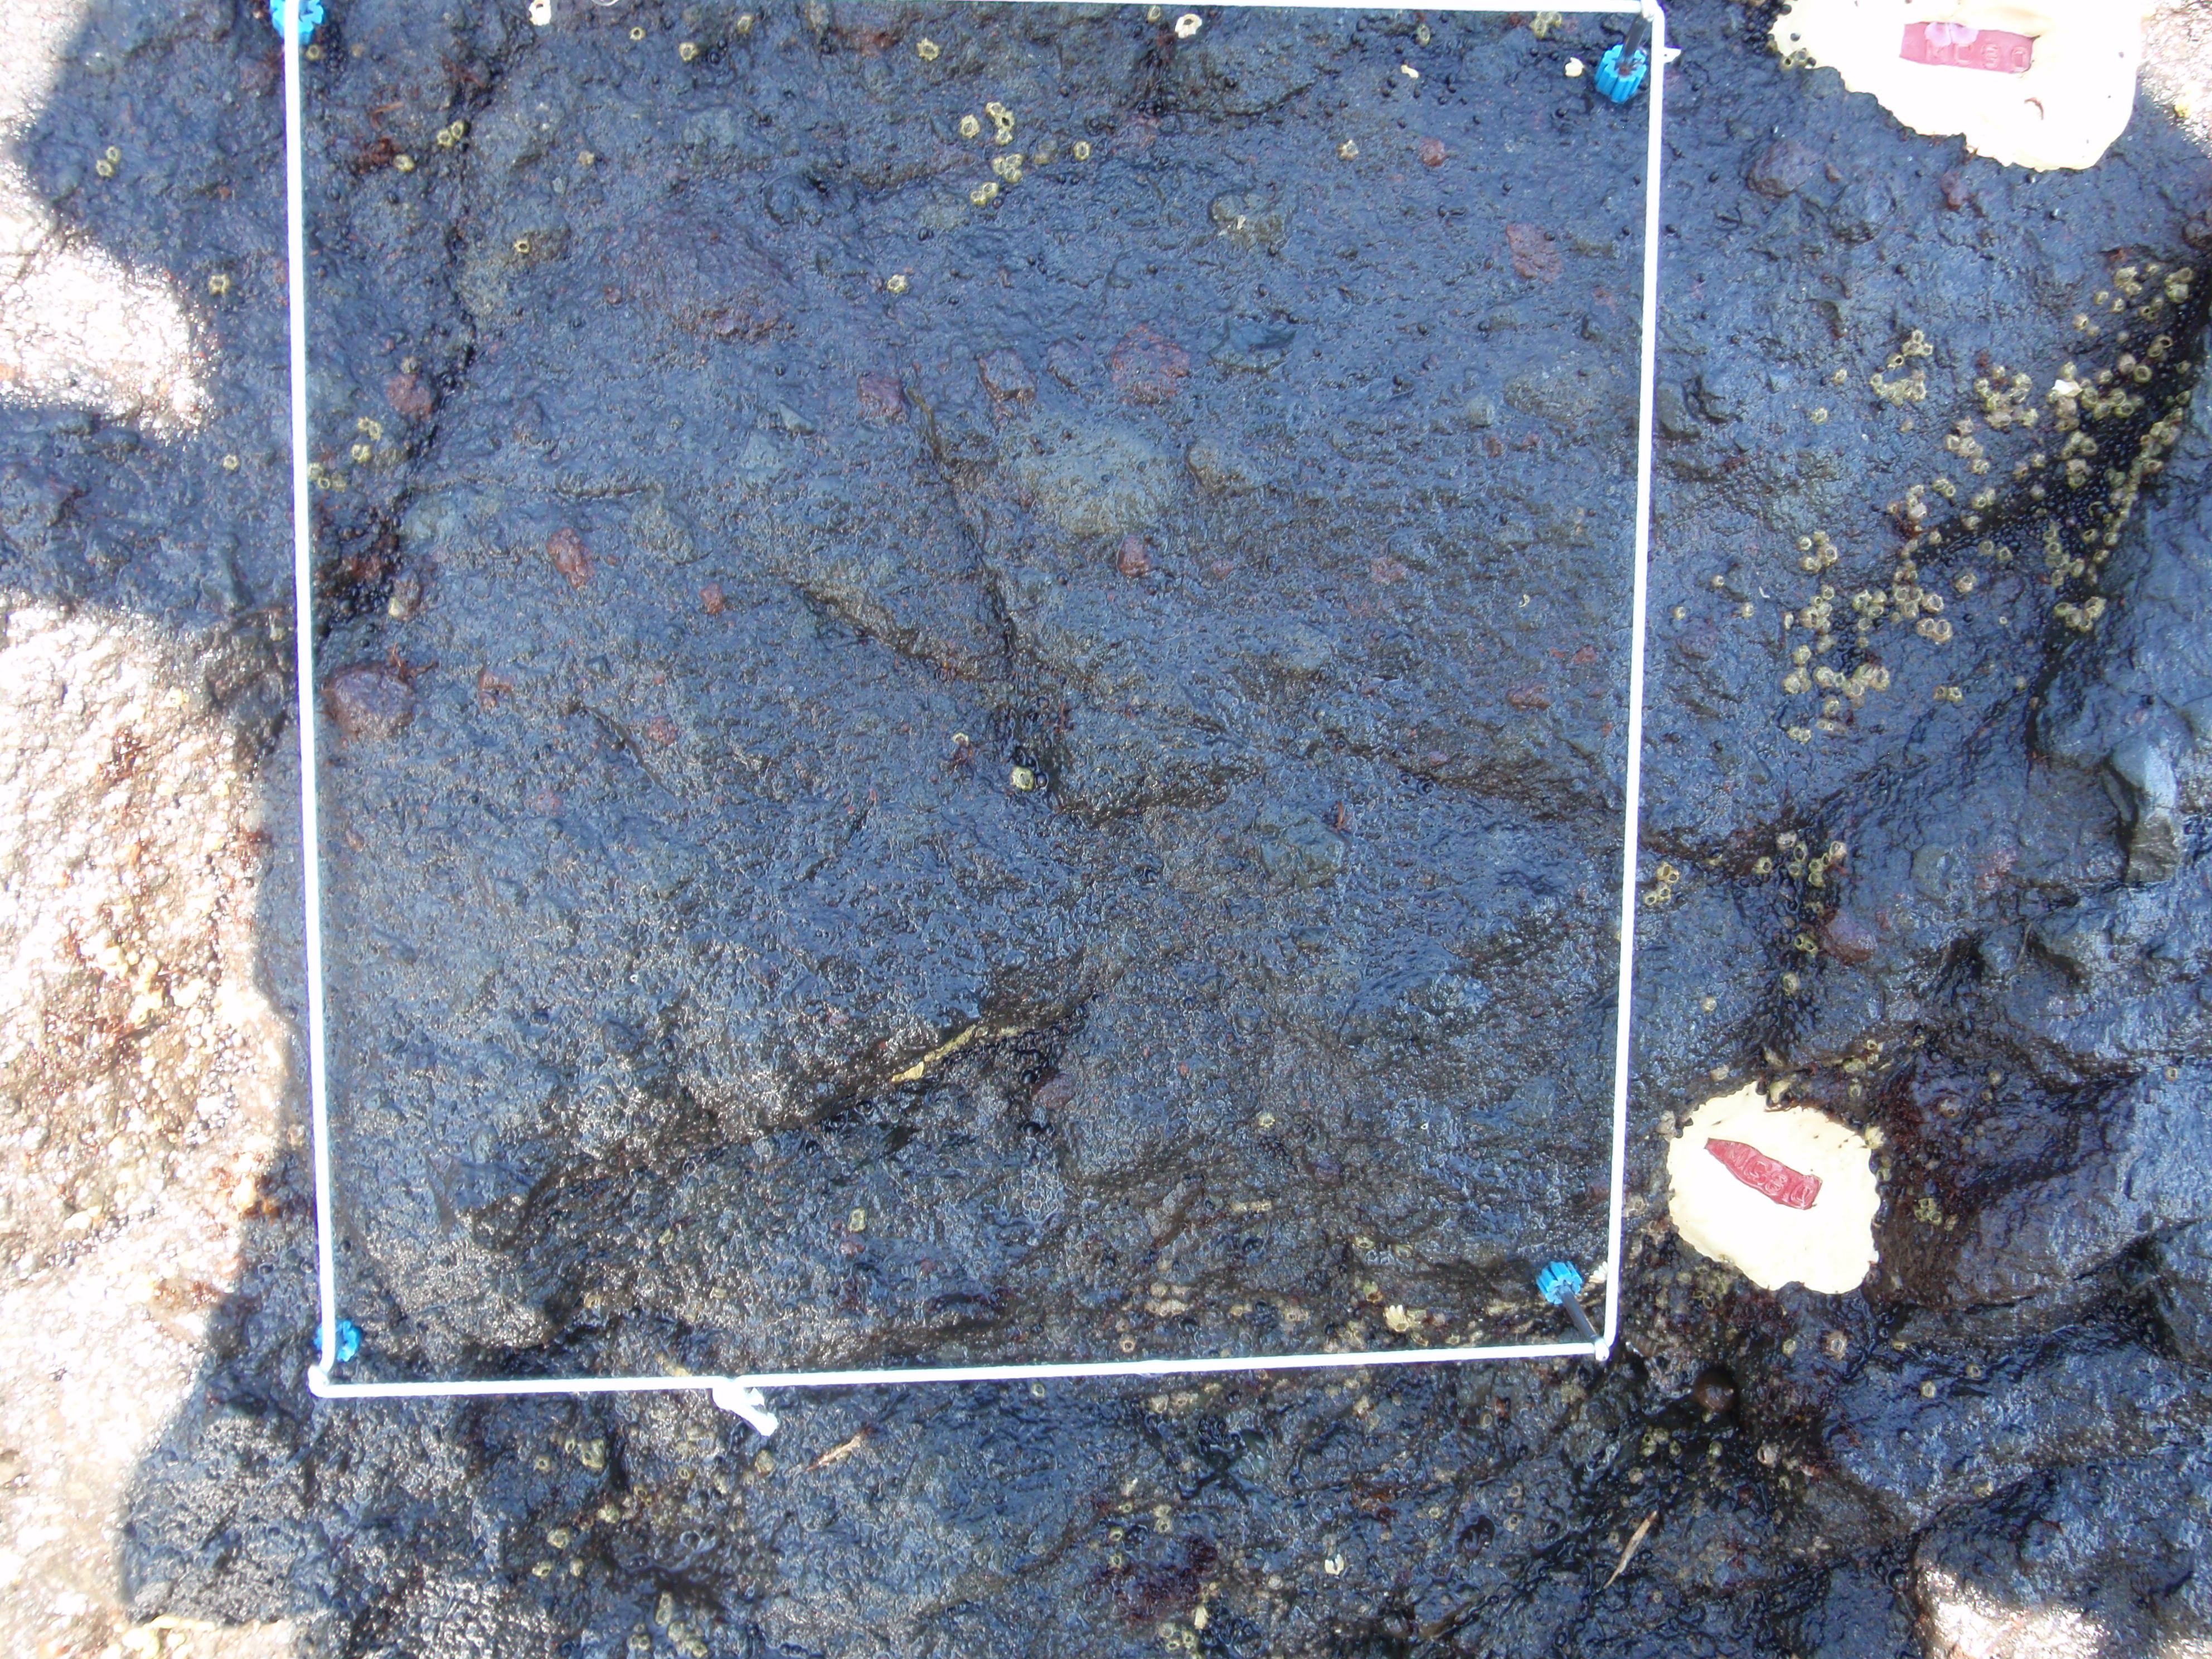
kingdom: Plantae
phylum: Rhodophyta
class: Florideophyceae
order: Gigartinales
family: Endocladiaceae
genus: Gloiopeltis
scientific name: Gloiopeltis furcata
